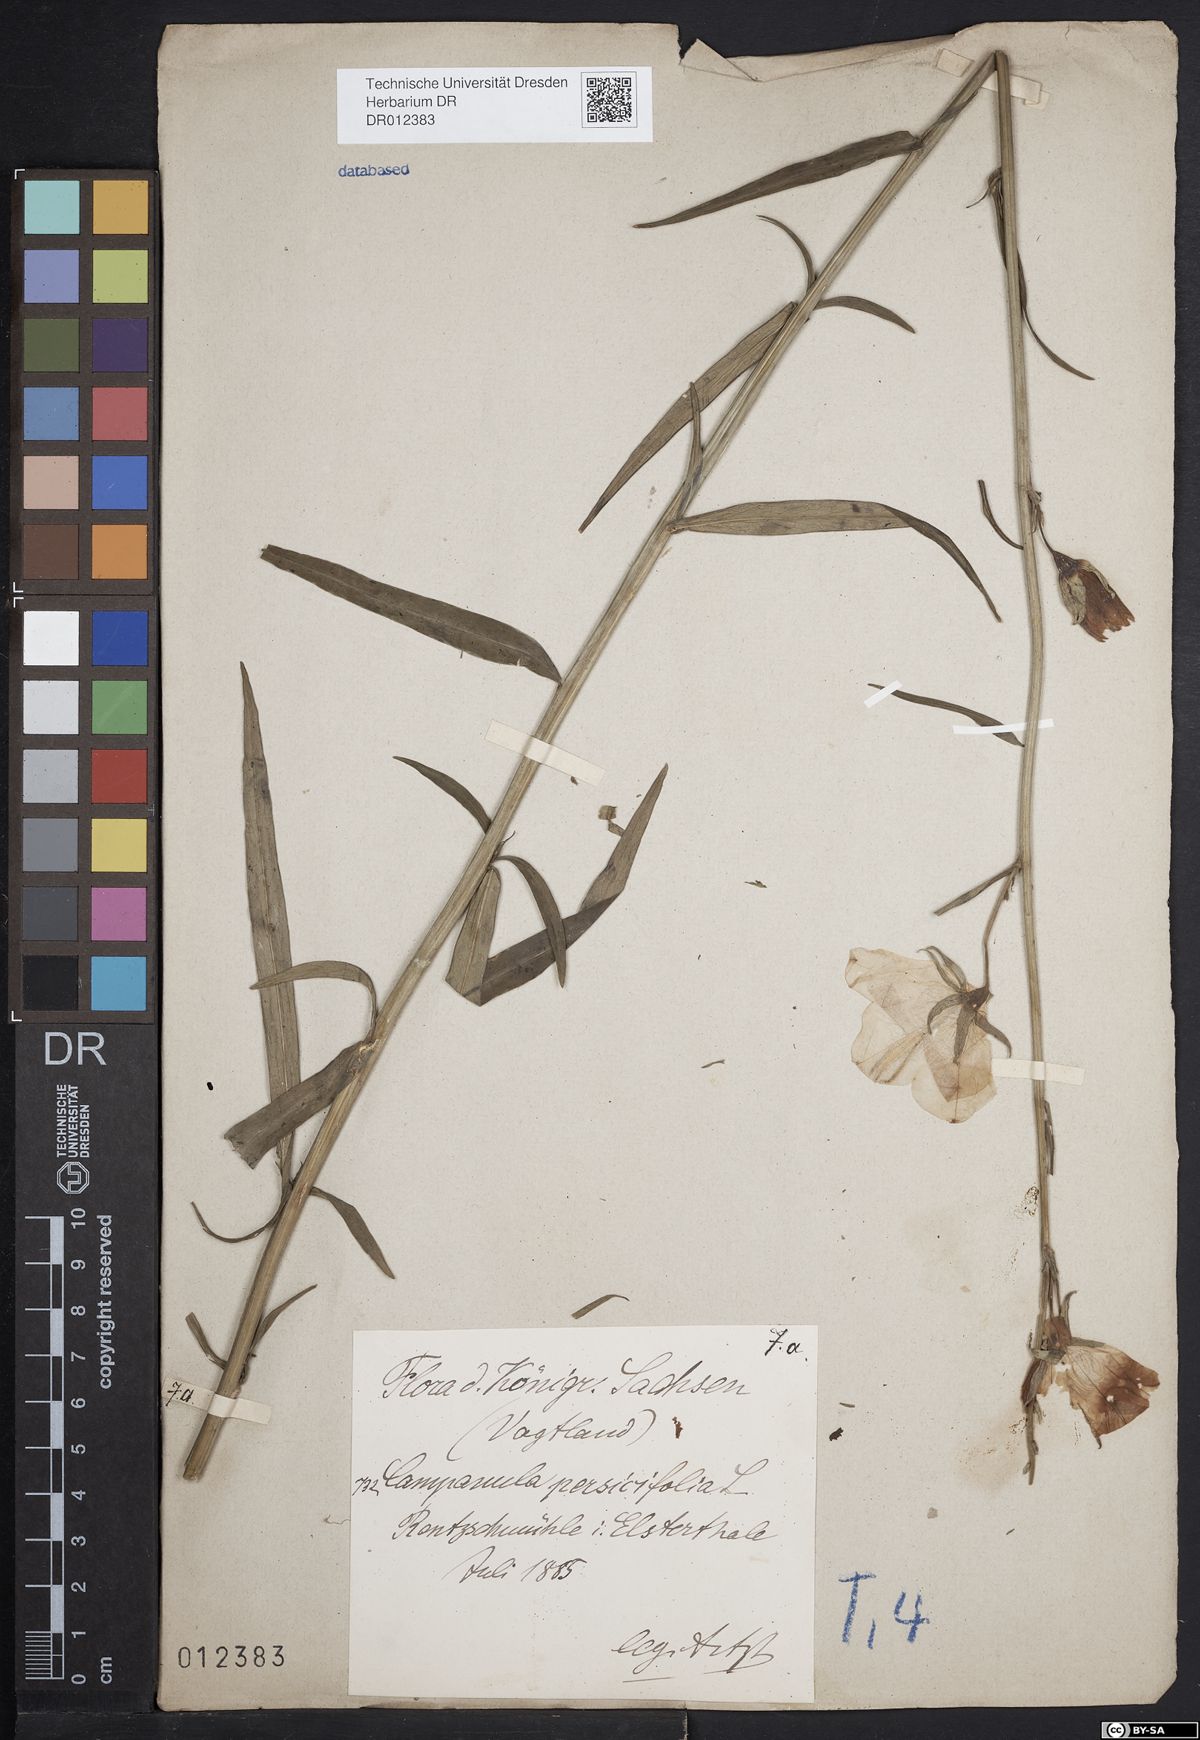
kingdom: Plantae
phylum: Tracheophyta
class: Magnoliopsida
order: Asterales
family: Campanulaceae
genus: Campanula
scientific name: Campanula persicifolia
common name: Peach-leaved bellflower
